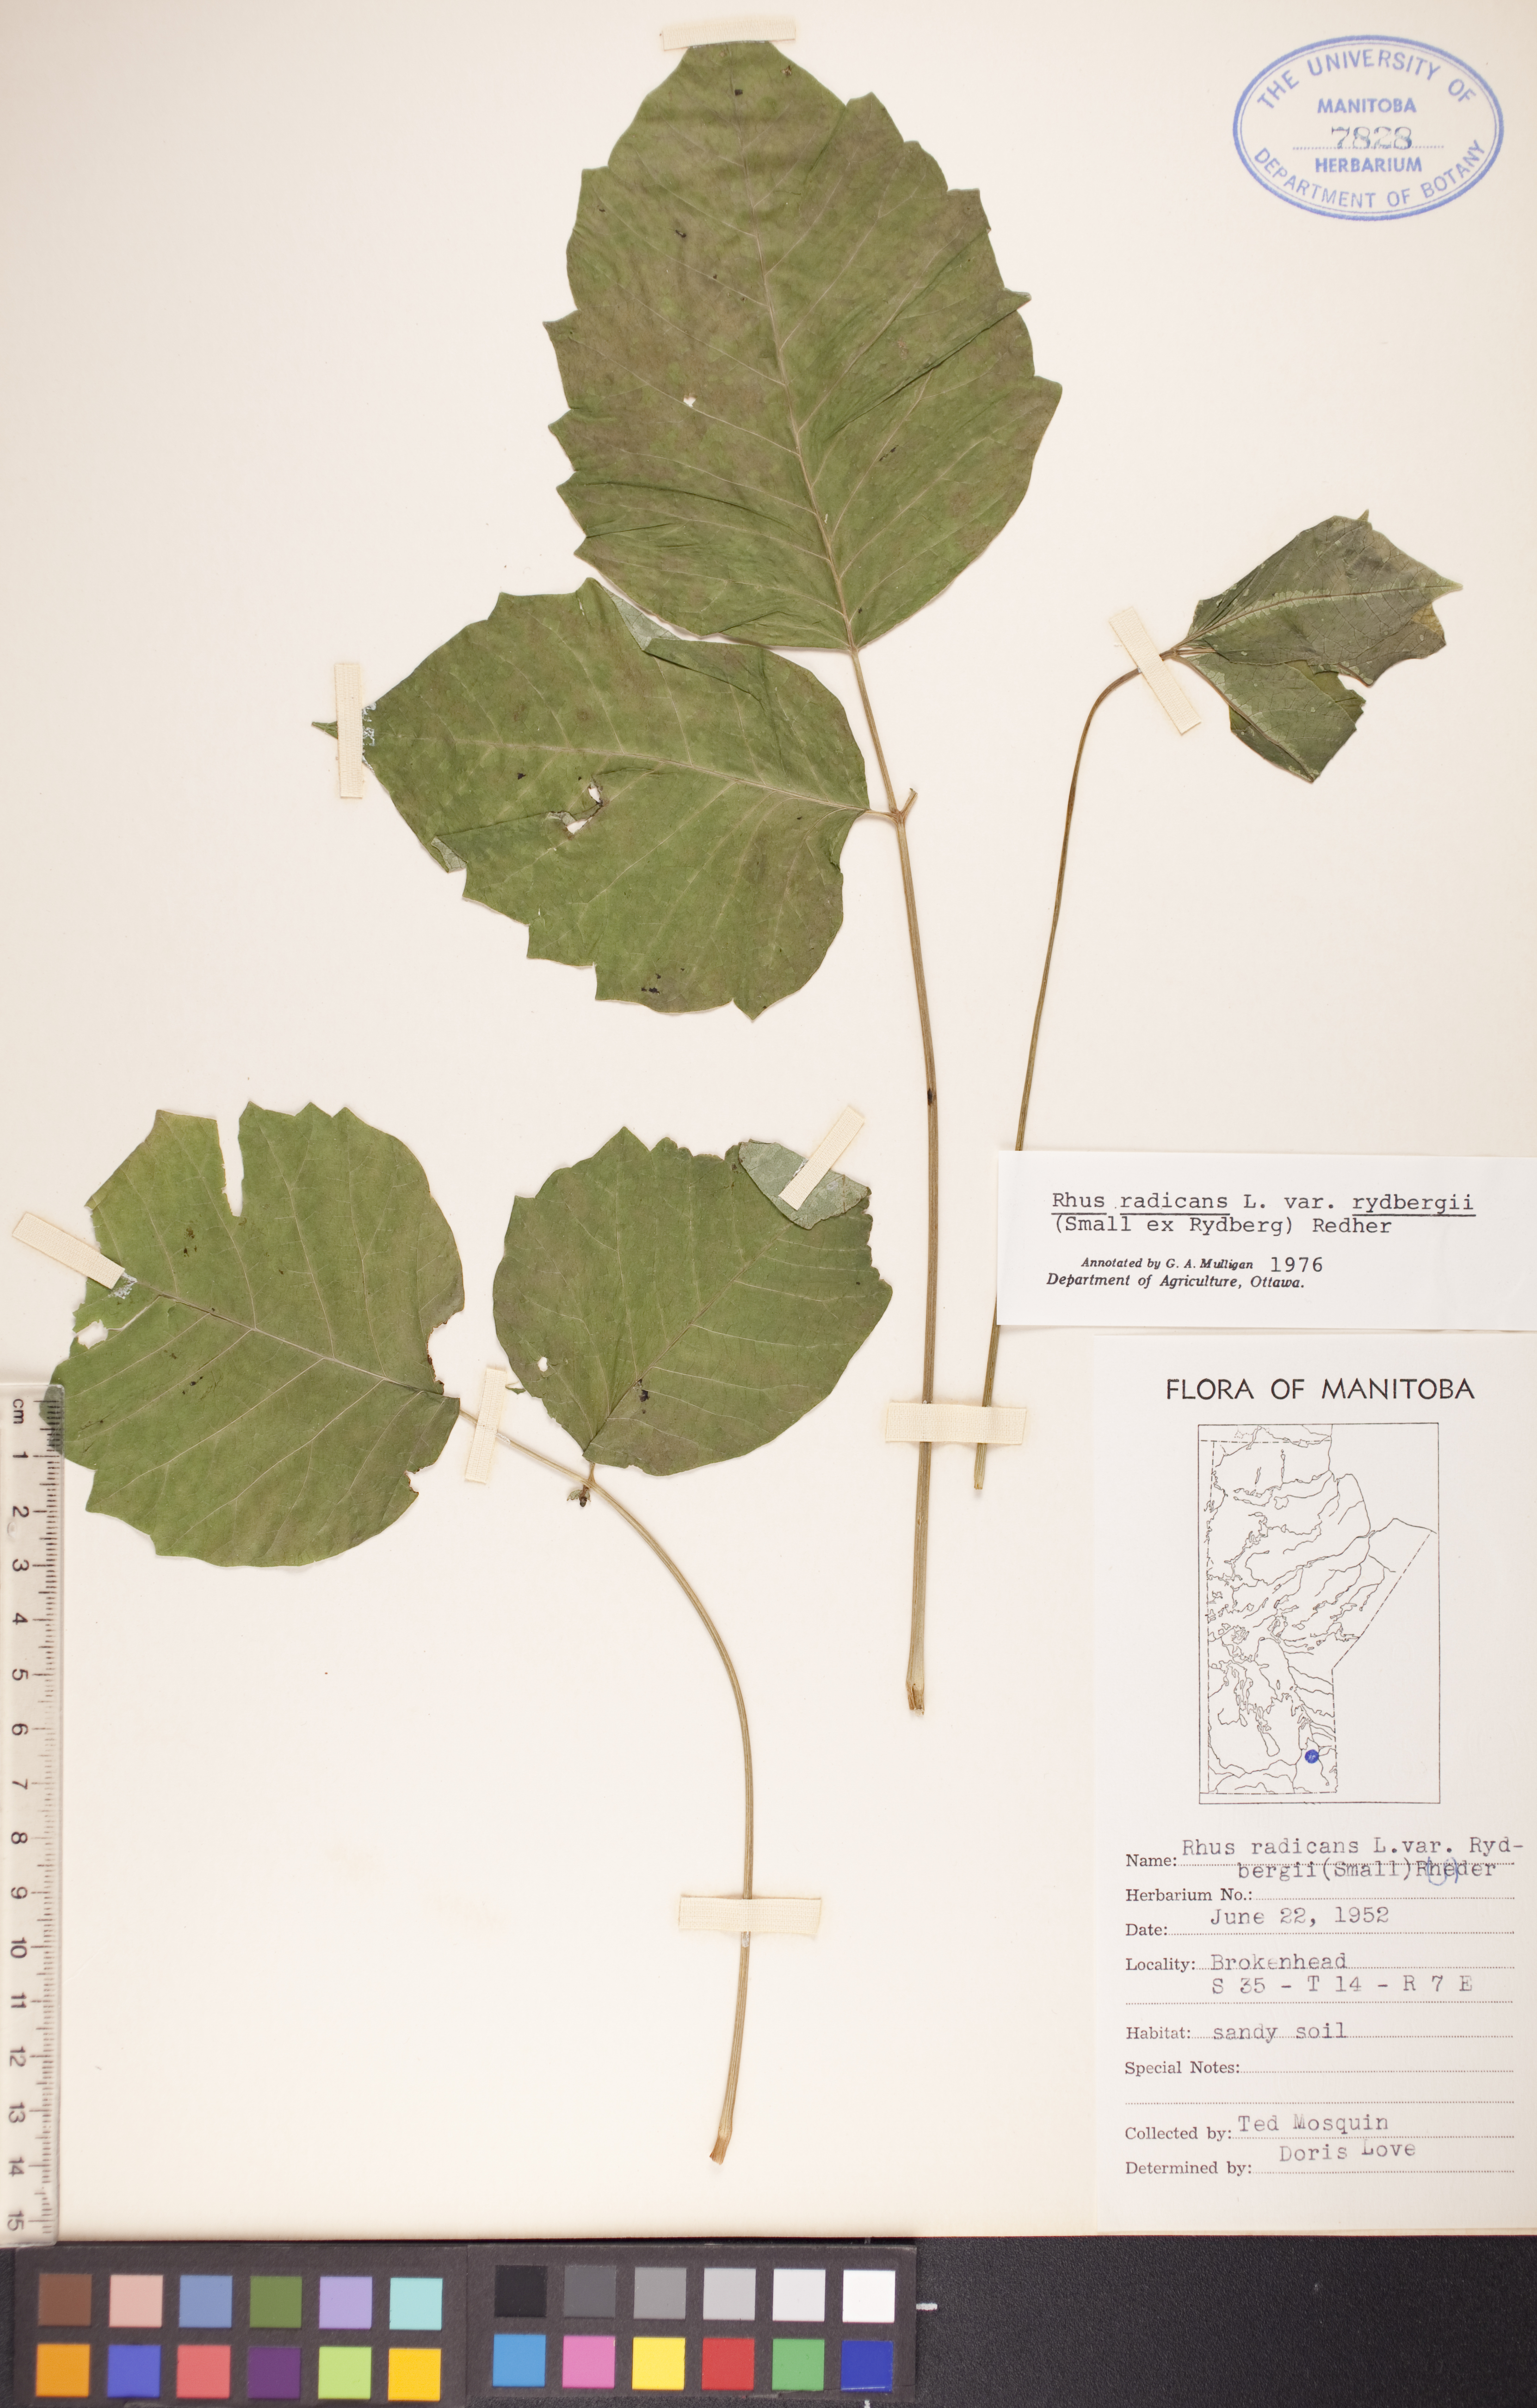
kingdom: Plantae
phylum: Tracheophyta
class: Magnoliopsida
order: Sapindales
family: Anacardiaceae
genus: Toxicodendron
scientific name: Toxicodendron rydbergii
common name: Rydberg's poison-ivy
